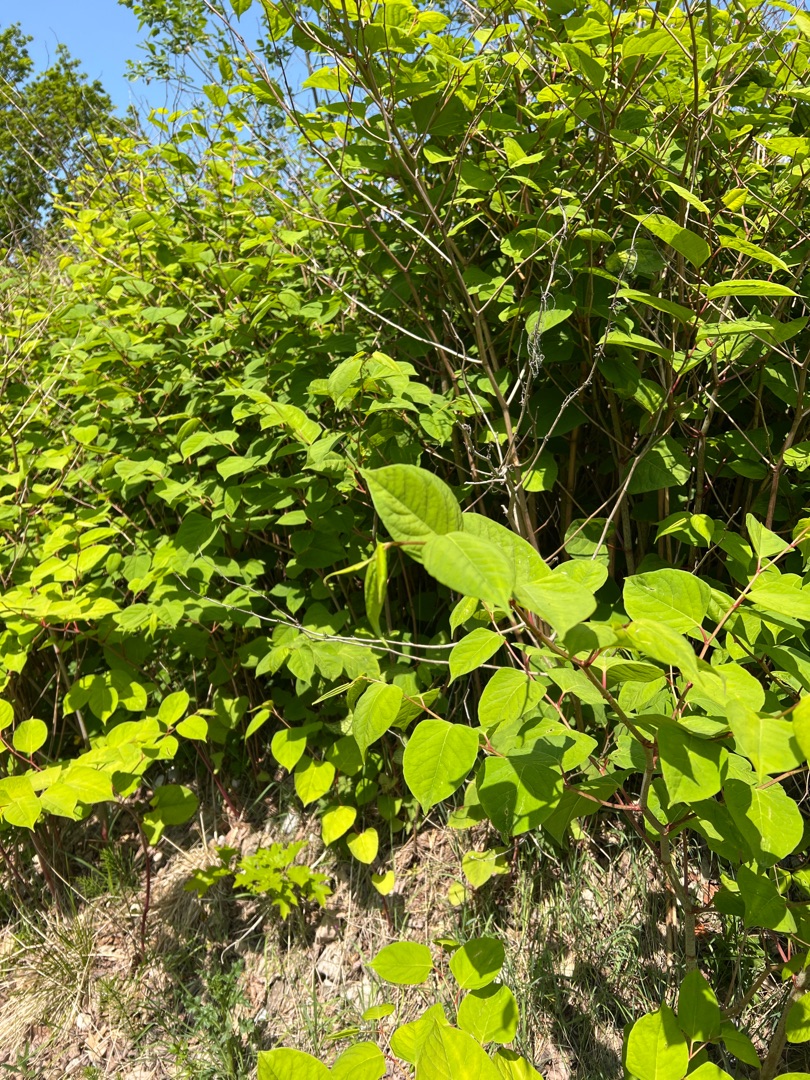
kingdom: Plantae
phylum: Tracheophyta
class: Magnoliopsida
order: Caryophyllales
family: Polygonaceae
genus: Reynoutria
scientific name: Reynoutria japonica
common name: Japan-pileurt
